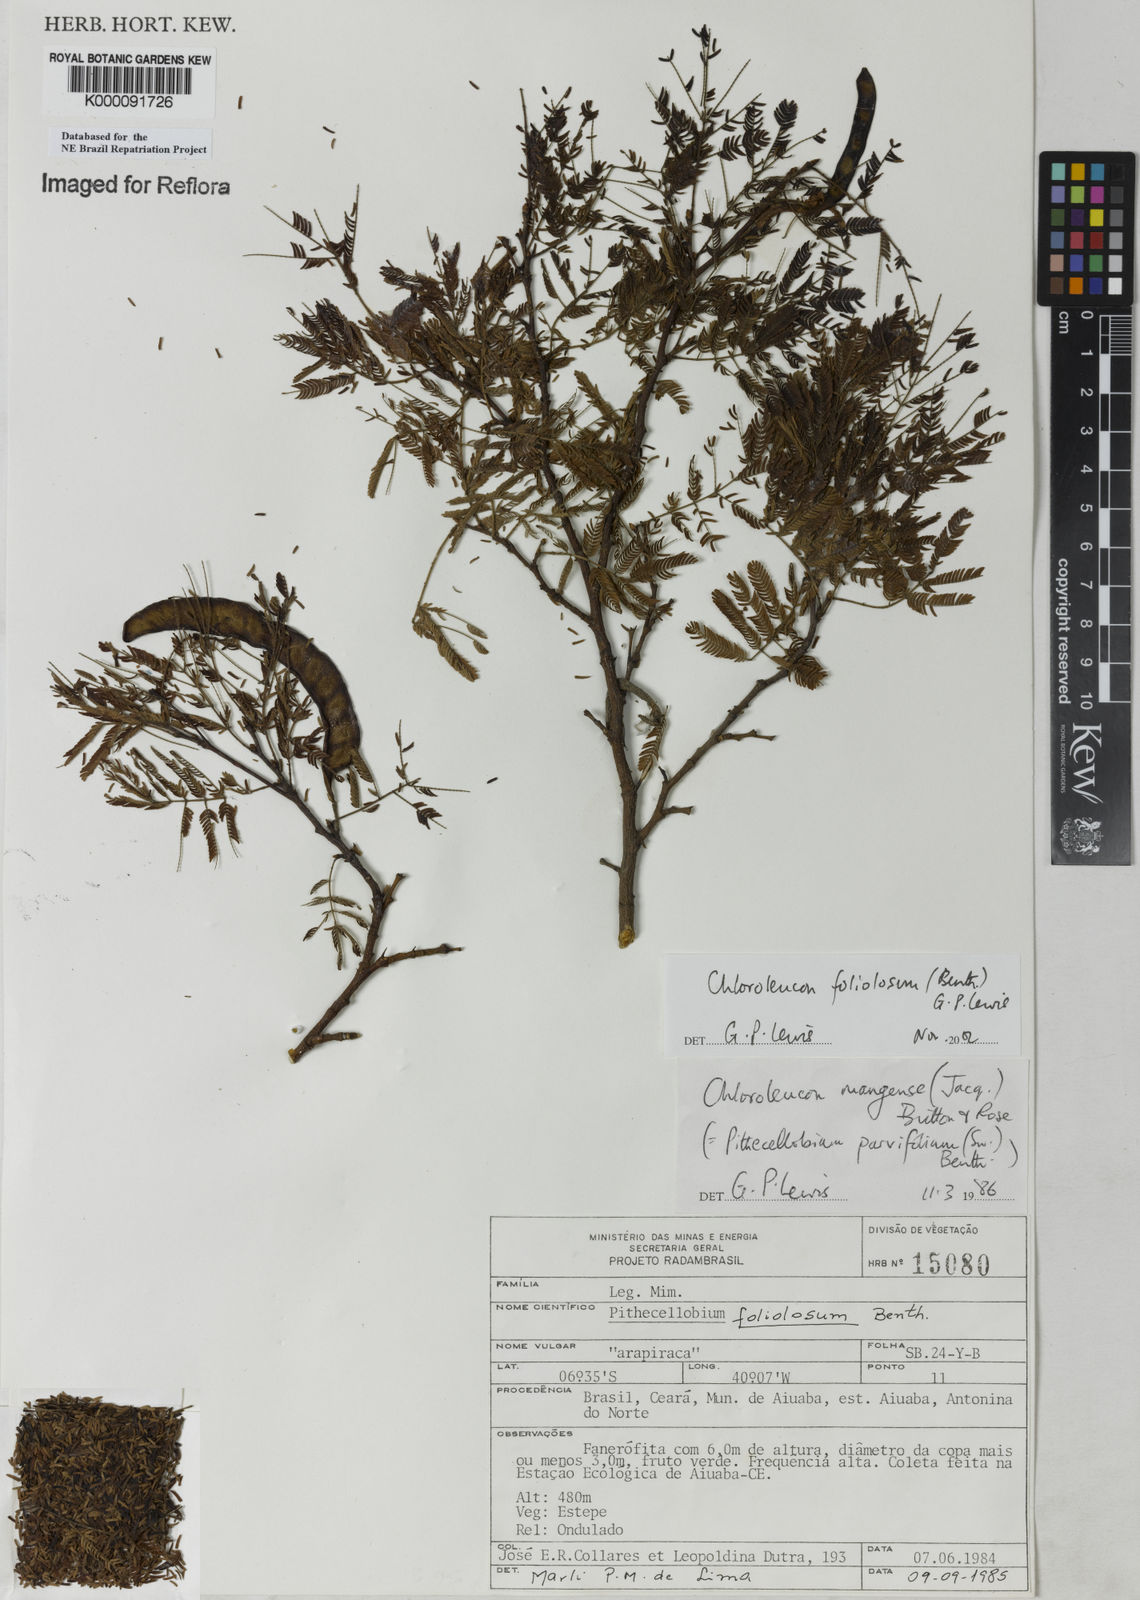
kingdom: Plantae
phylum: Tracheophyta
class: Magnoliopsida
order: Fabales
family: Fabaceae
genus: Chloroleucon
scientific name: Chloroleucon foliolosum
